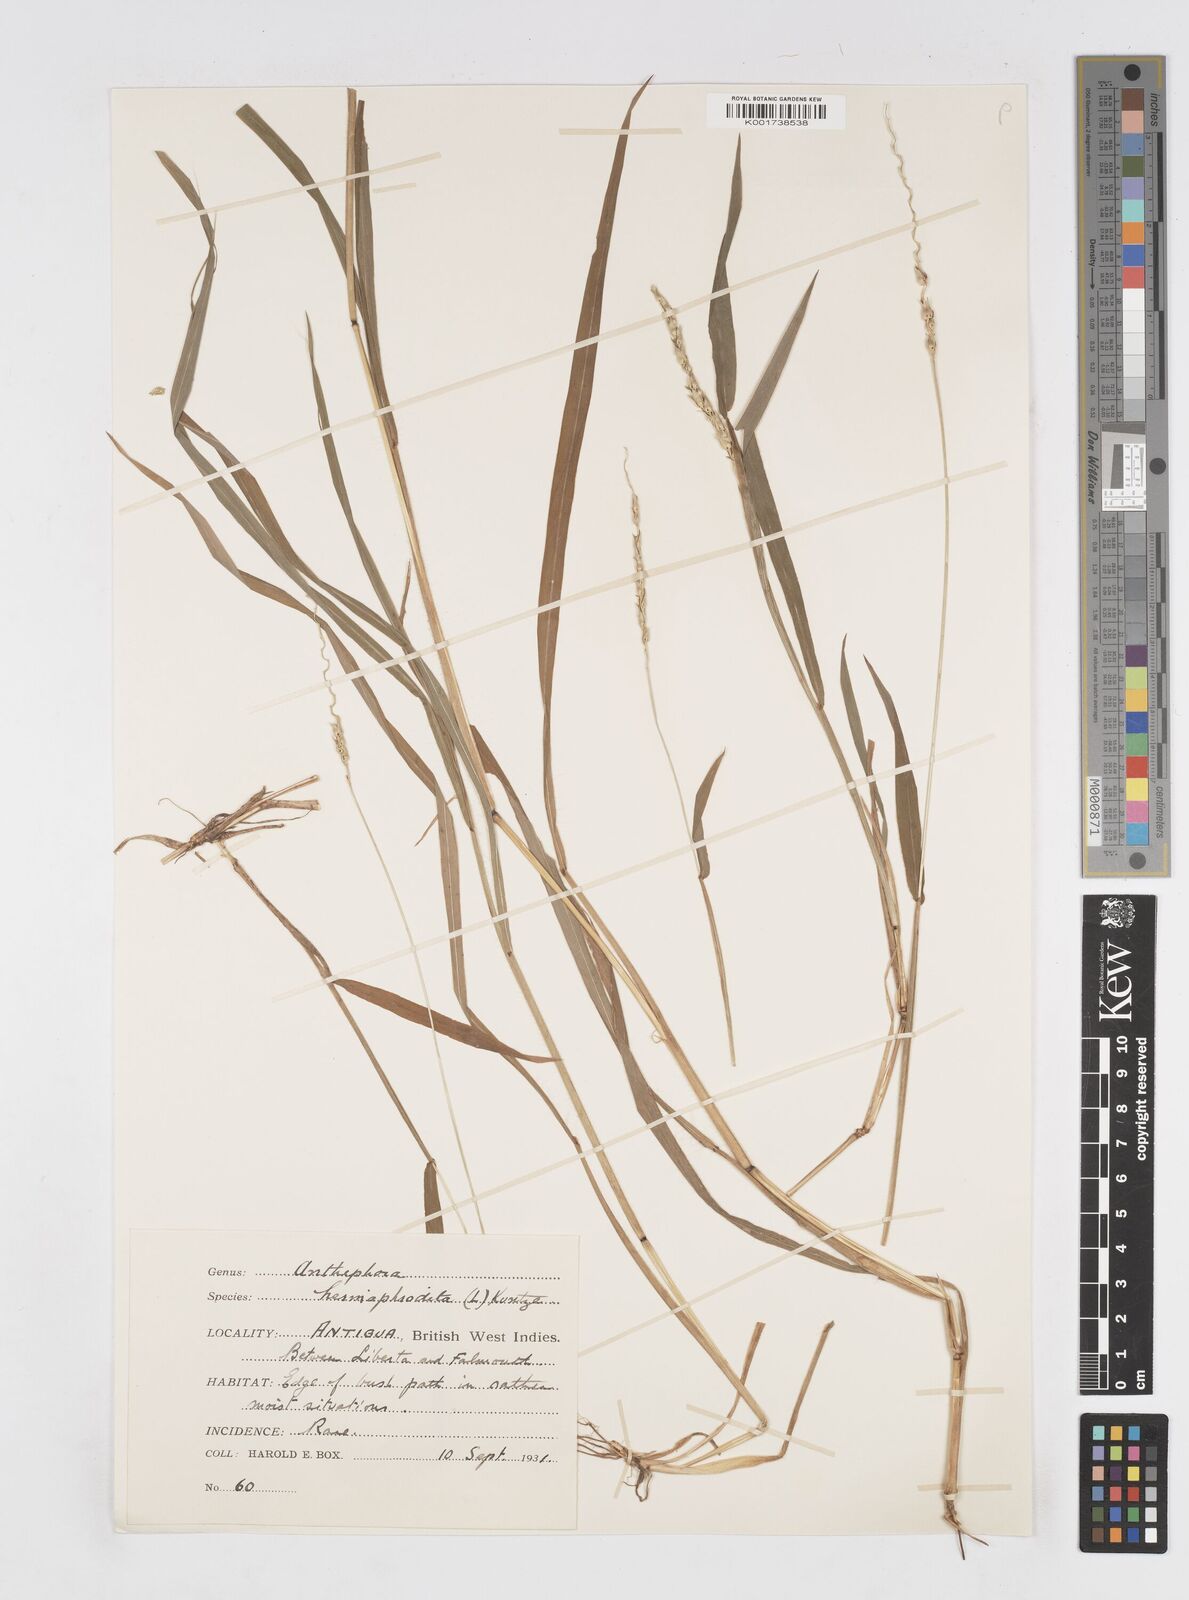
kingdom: Plantae
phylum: Tracheophyta
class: Liliopsida
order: Poales
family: Poaceae
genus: Anthephora
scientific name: Anthephora hermaphrodita
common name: Oldfield grass
